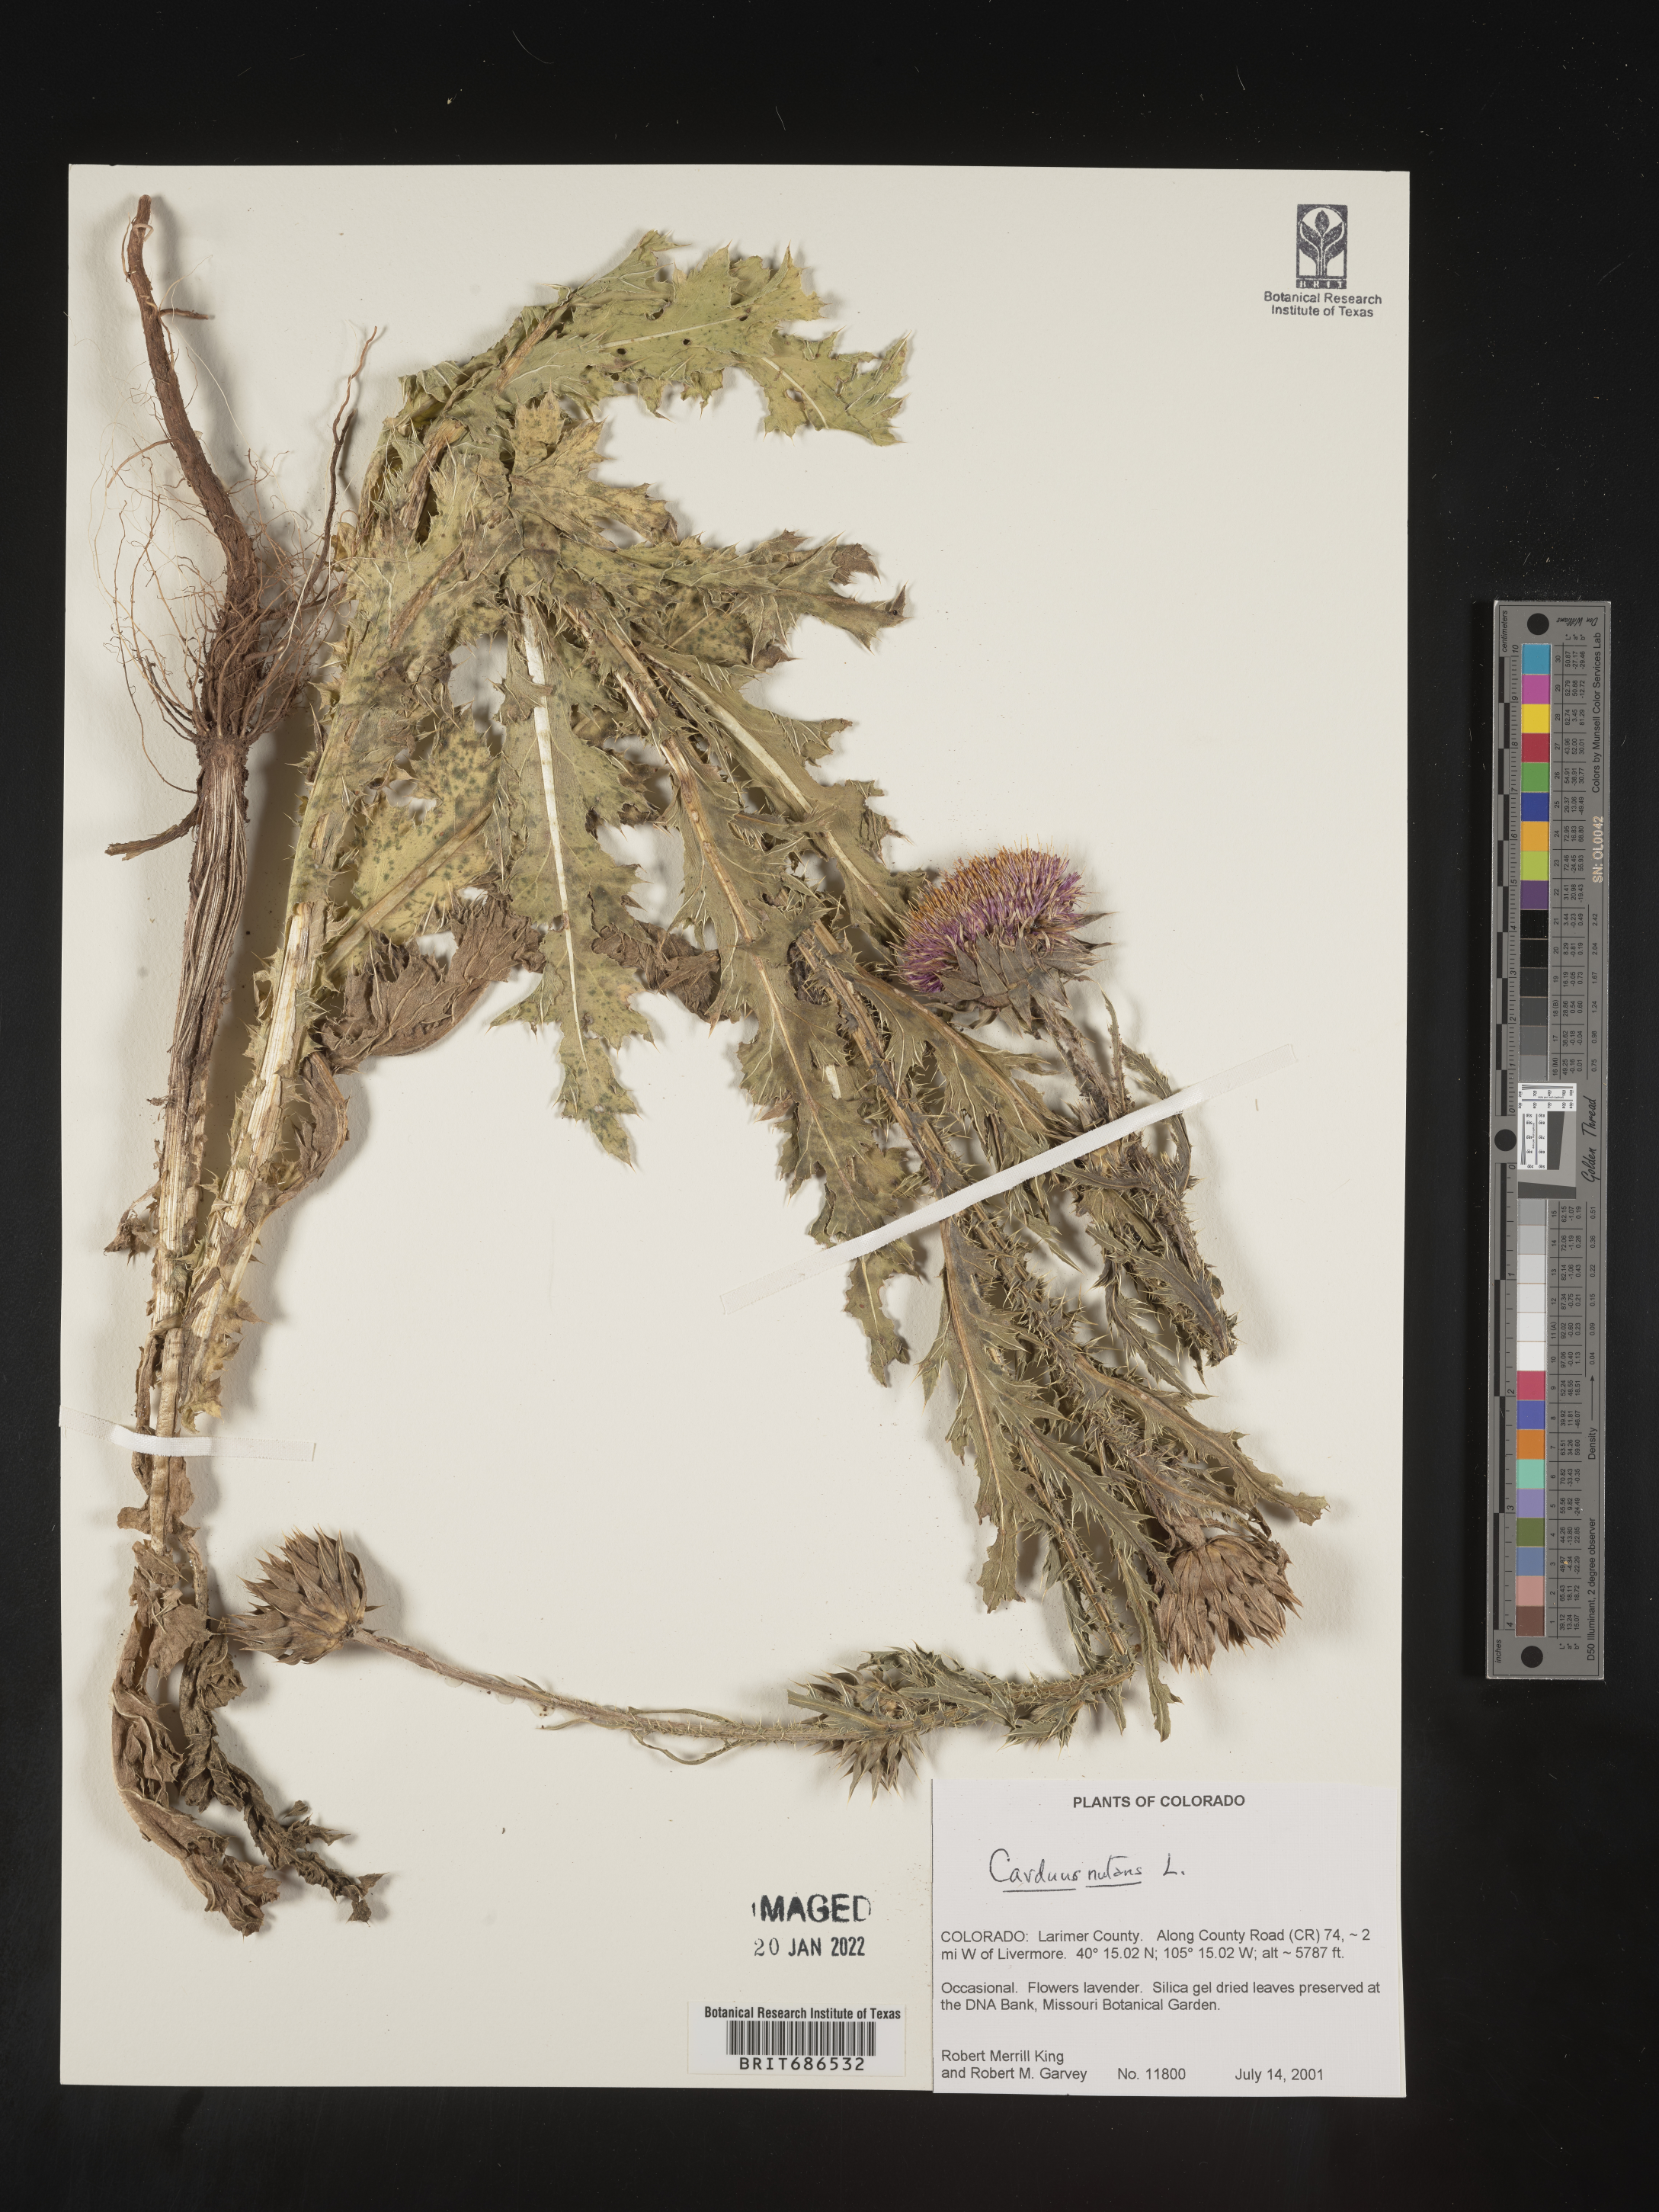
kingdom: Plantae
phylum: Tracheophyta
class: Magnoliopsida
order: Asterales
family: Asteraceae
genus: Carduus
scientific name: Carduus nutans
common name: Musk thistle
